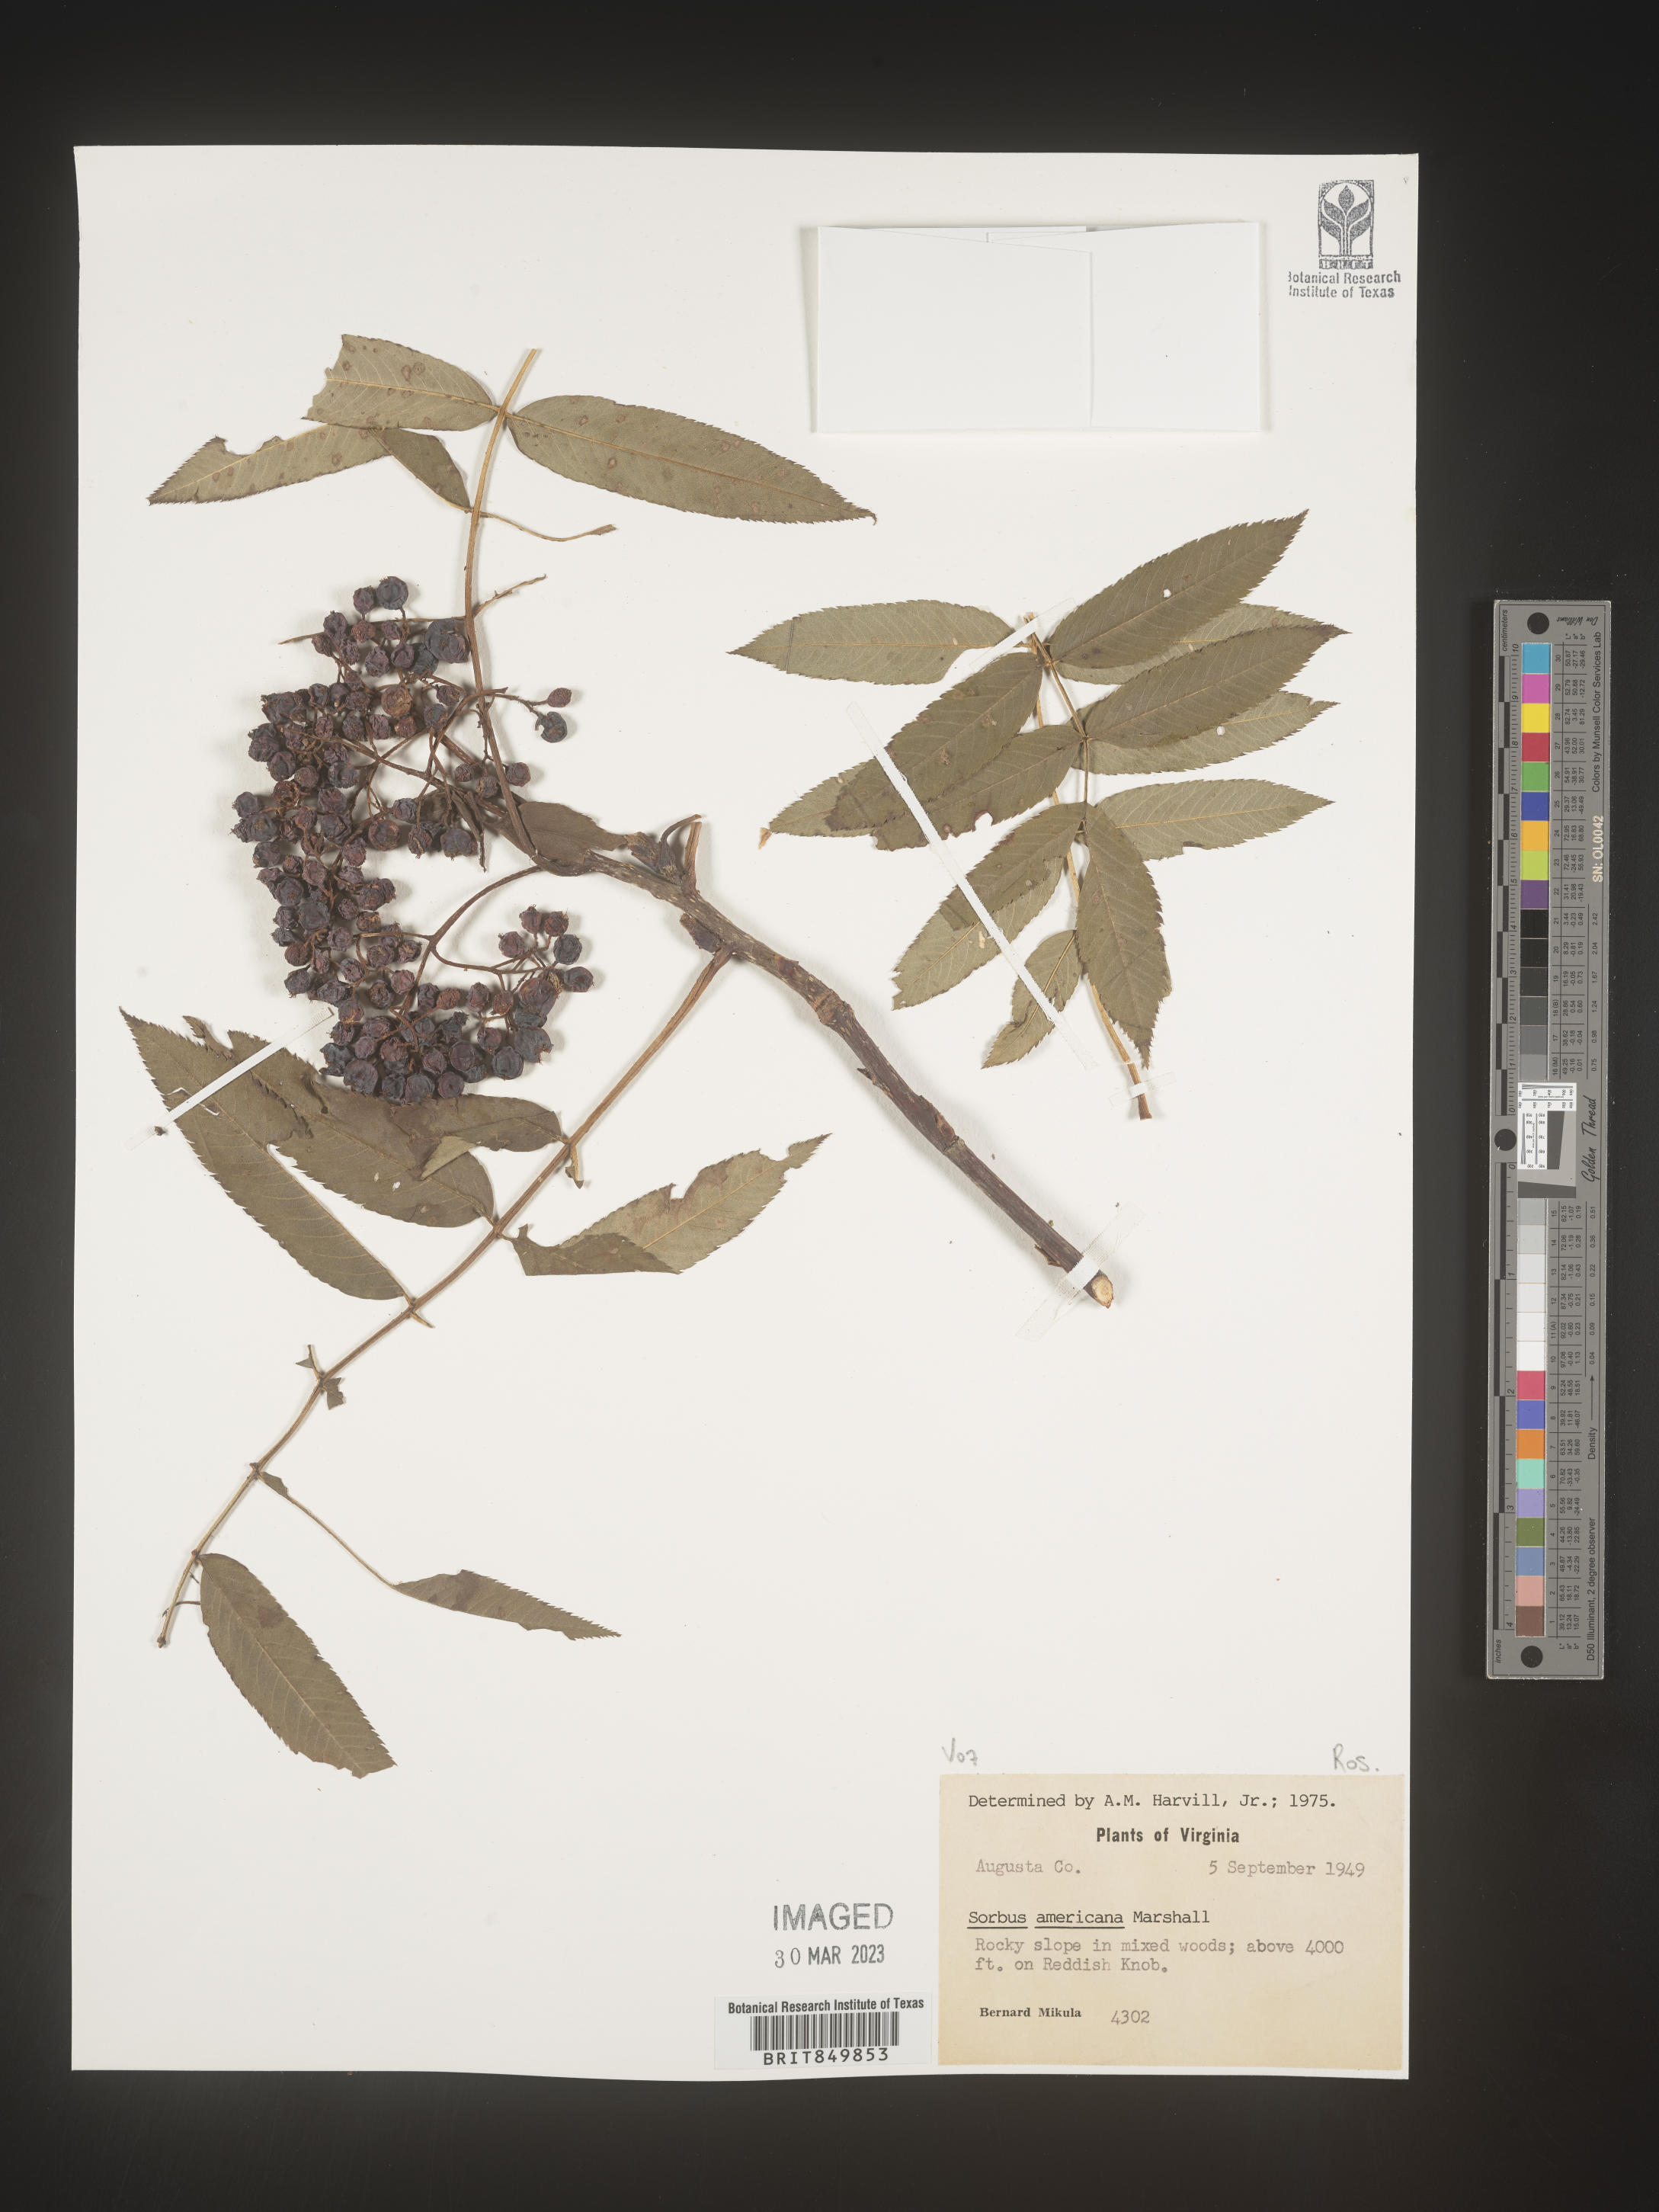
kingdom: Plantae
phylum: Tracheophyta
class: Magnoliopsida
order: Rosales
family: Rosaceae
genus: Sorbus
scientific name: Sorbus
